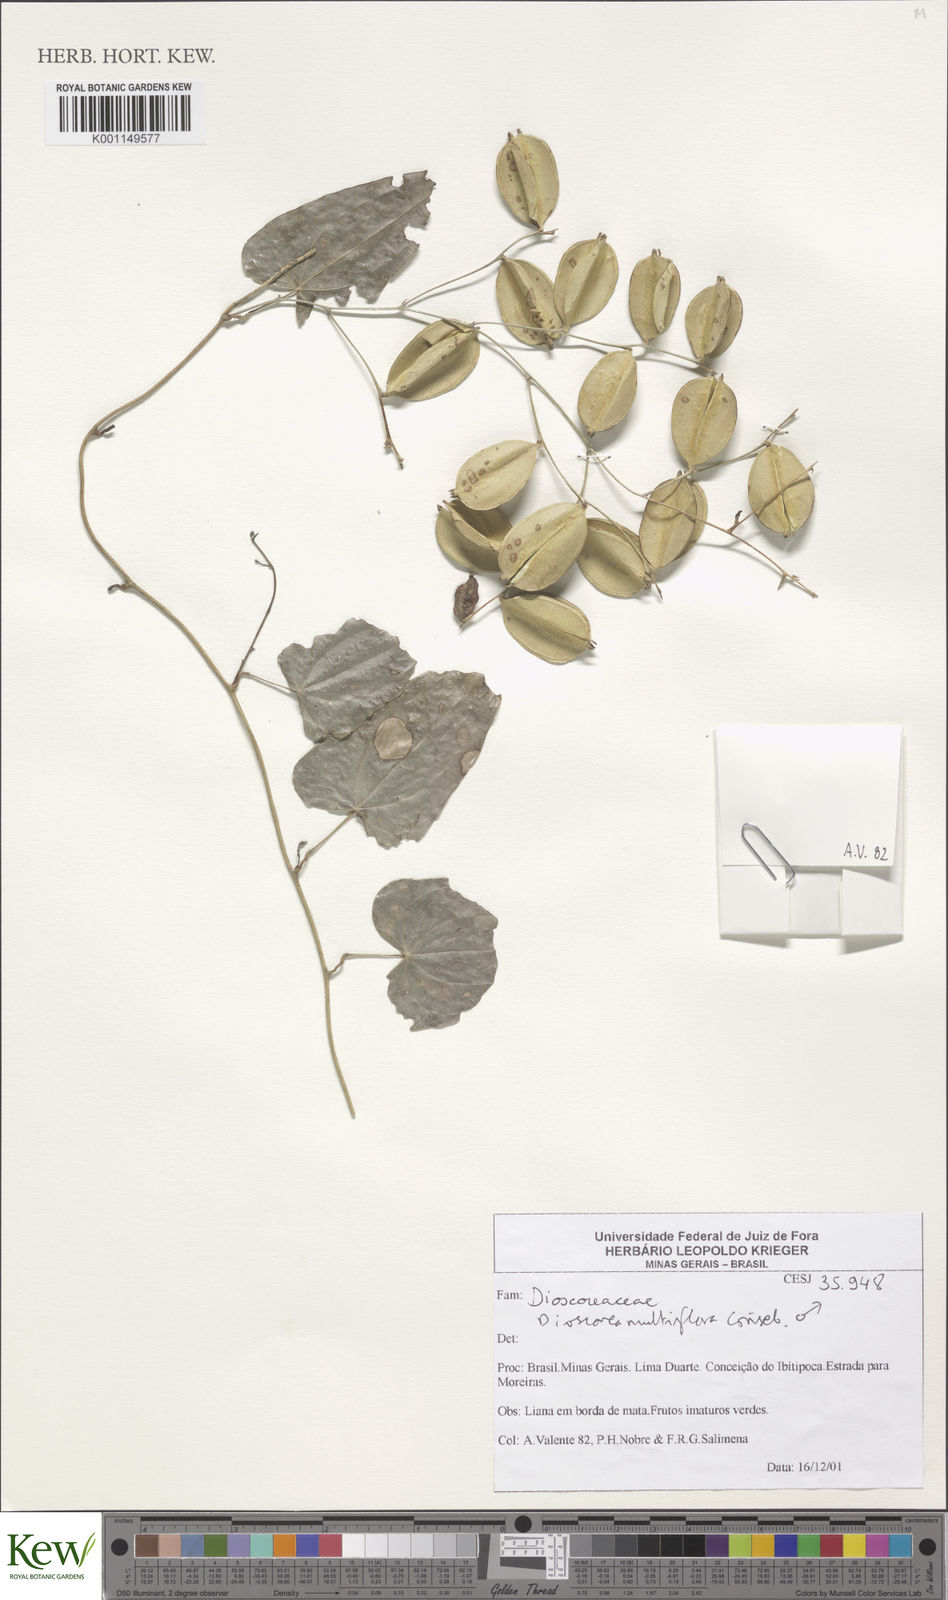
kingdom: Plantae
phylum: Tracheophyta
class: Liliopsida
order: Dioscoreales
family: Dioscoreaceae
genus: Dioscorea
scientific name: Dioscorea multiflora
